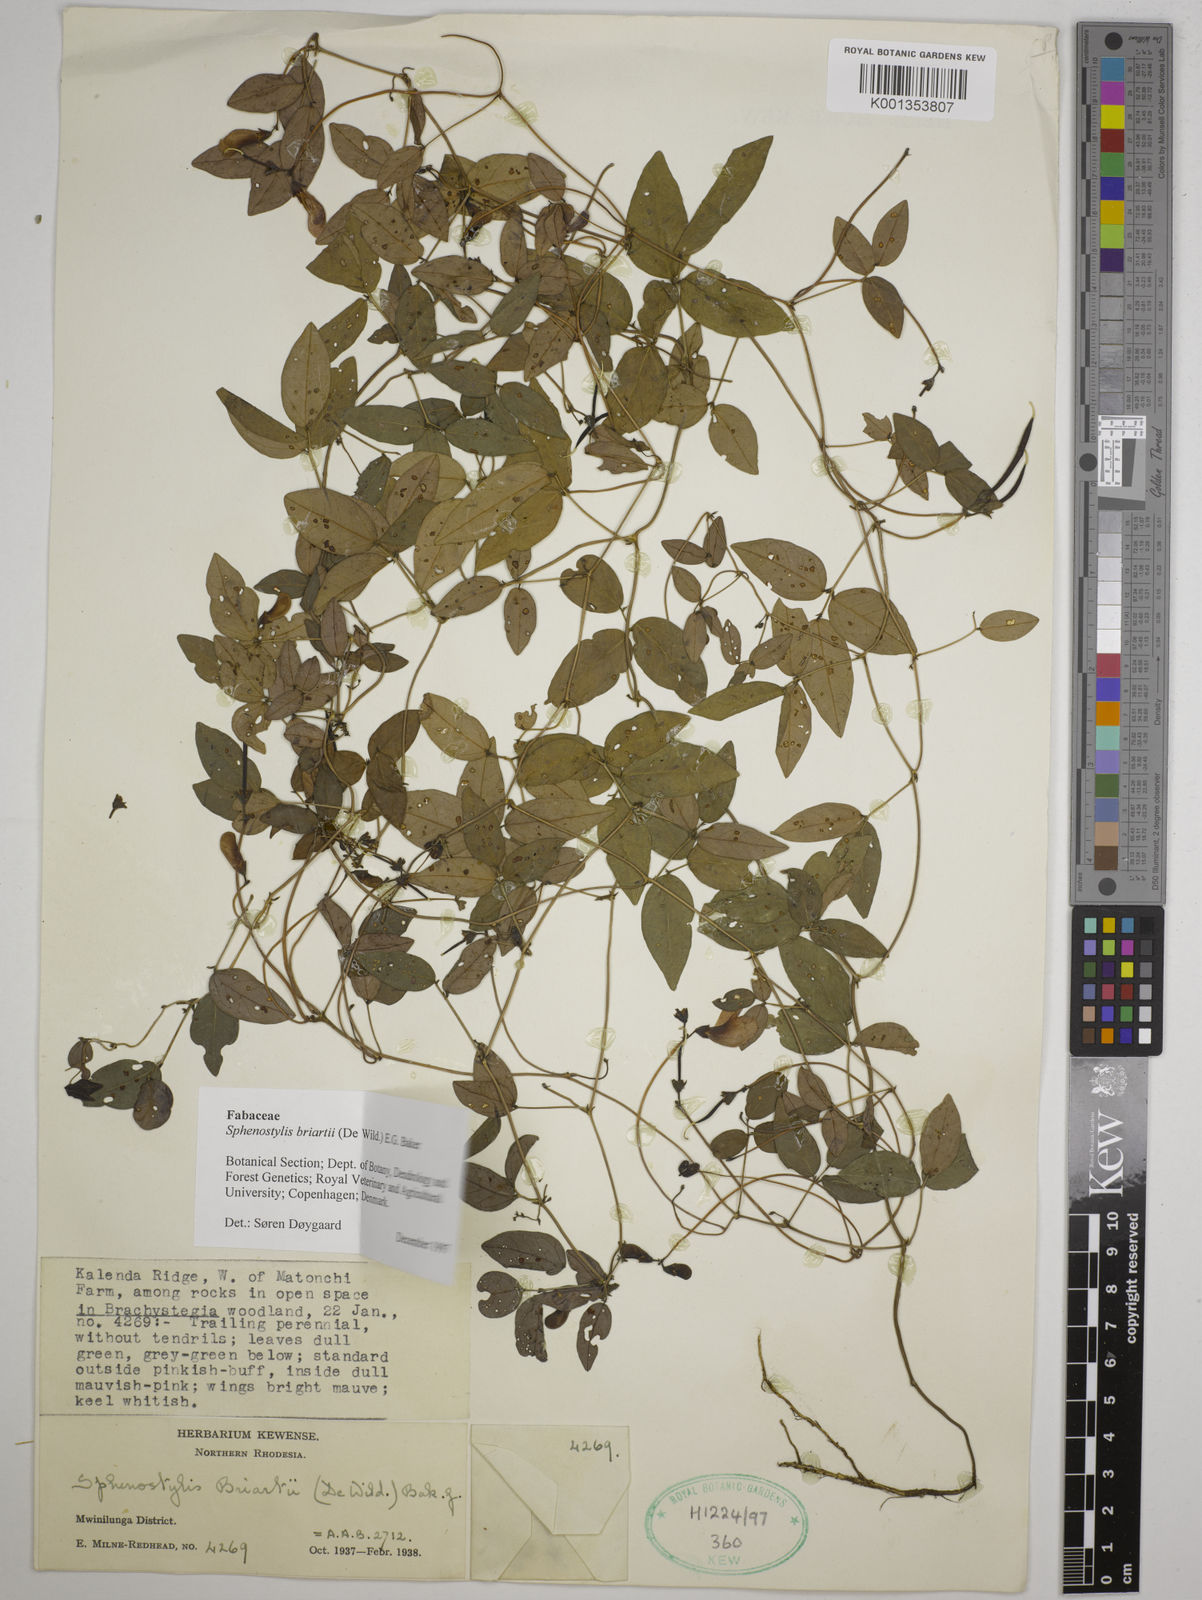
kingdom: Plantae
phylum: Tracheophyta
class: Magnoliopsida
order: Fabales
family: Fabaceae
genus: Sphenostylis
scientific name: Sphenostylis briartii
